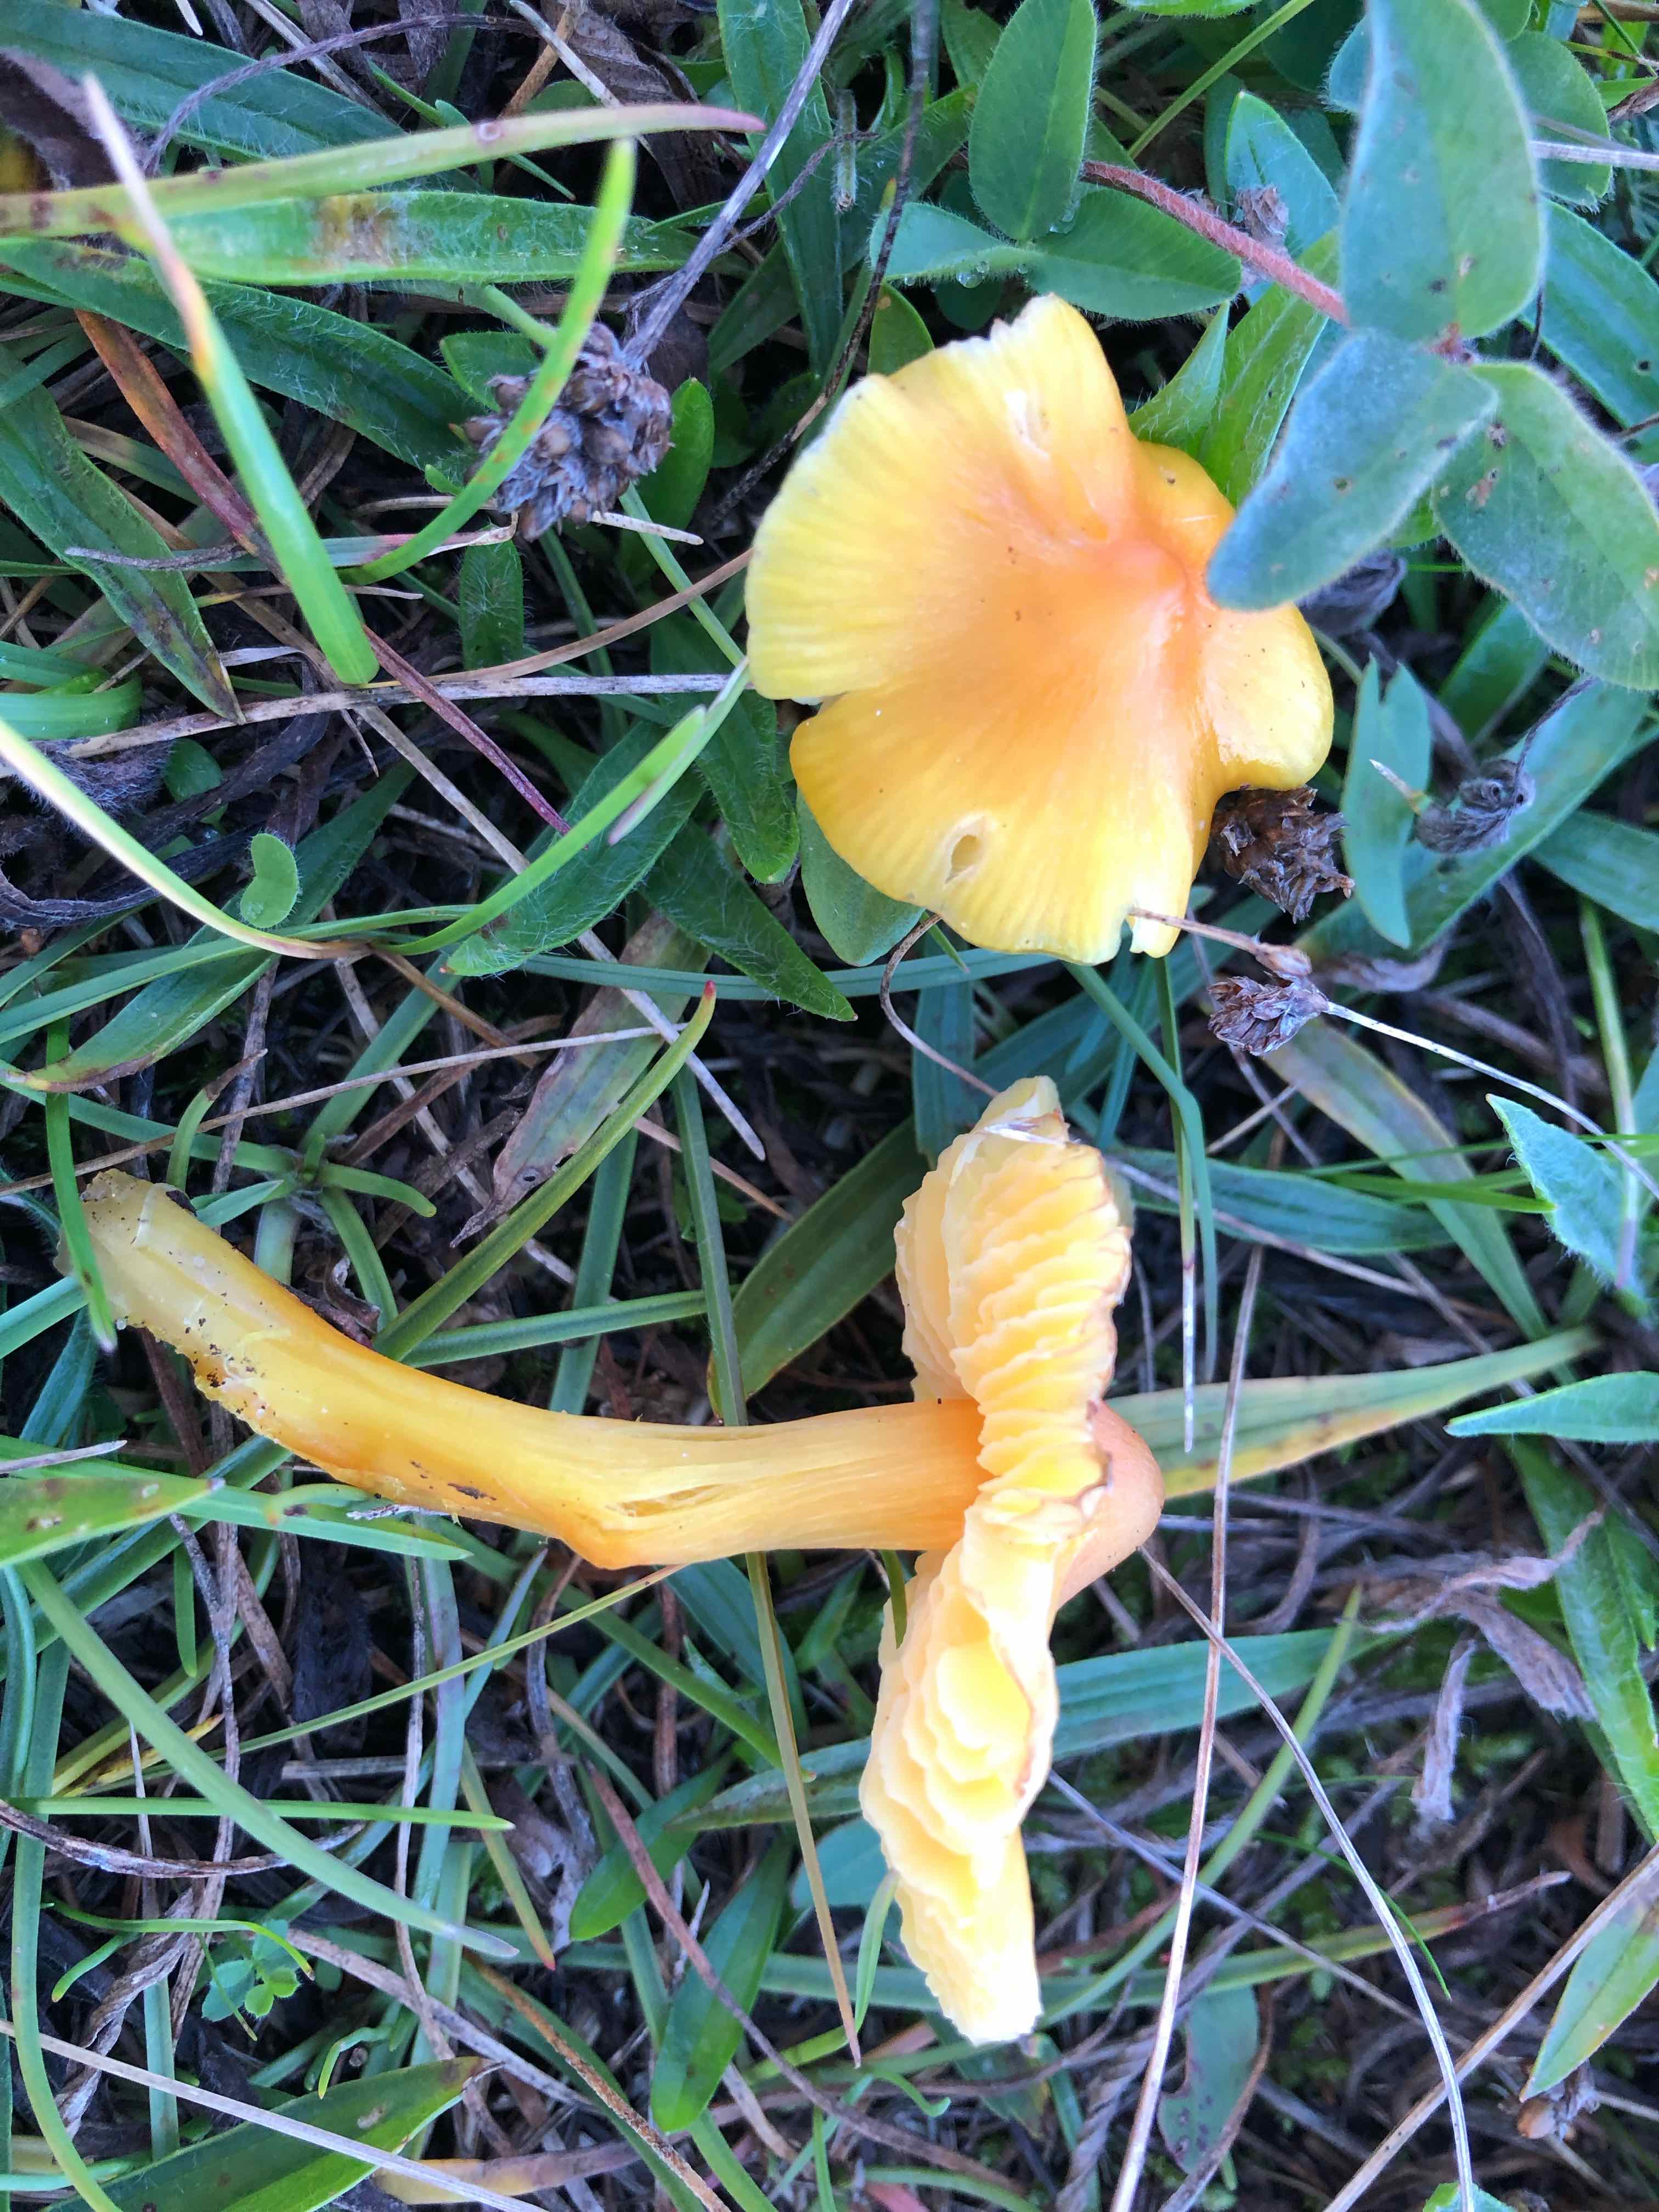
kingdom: Fungi
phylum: Basidiomycota
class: Agaricomycetes
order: Agaricales
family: Hygrophoraceae
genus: Hygrocybe
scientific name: Hygrocybe acutoconica
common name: spidspuklet vokshat
